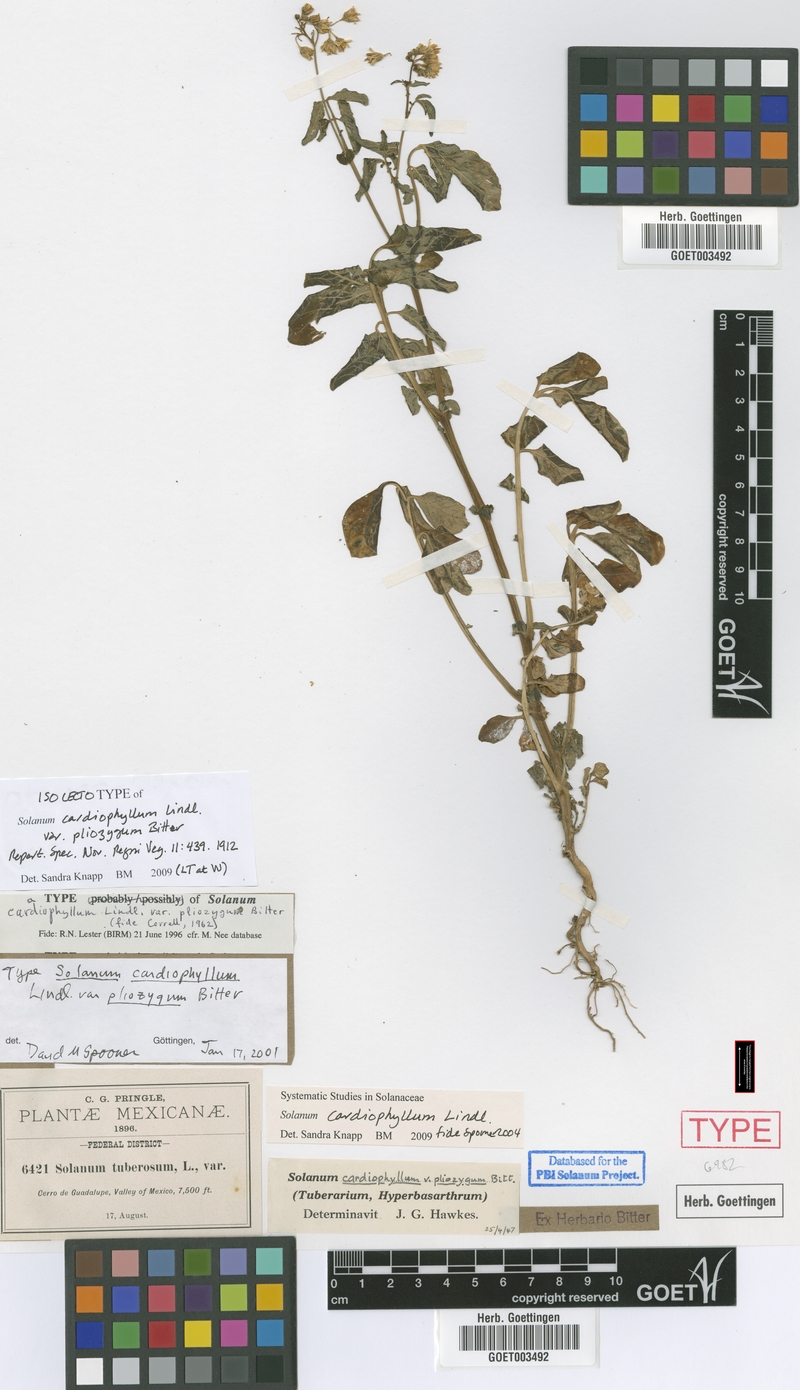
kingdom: Plantae
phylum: Tracheophyta
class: Magnoliopsida
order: Solanales
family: Solanaceae
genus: Solanum
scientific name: Solanum cardiophyllum
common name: Heartleaf horsenettle
